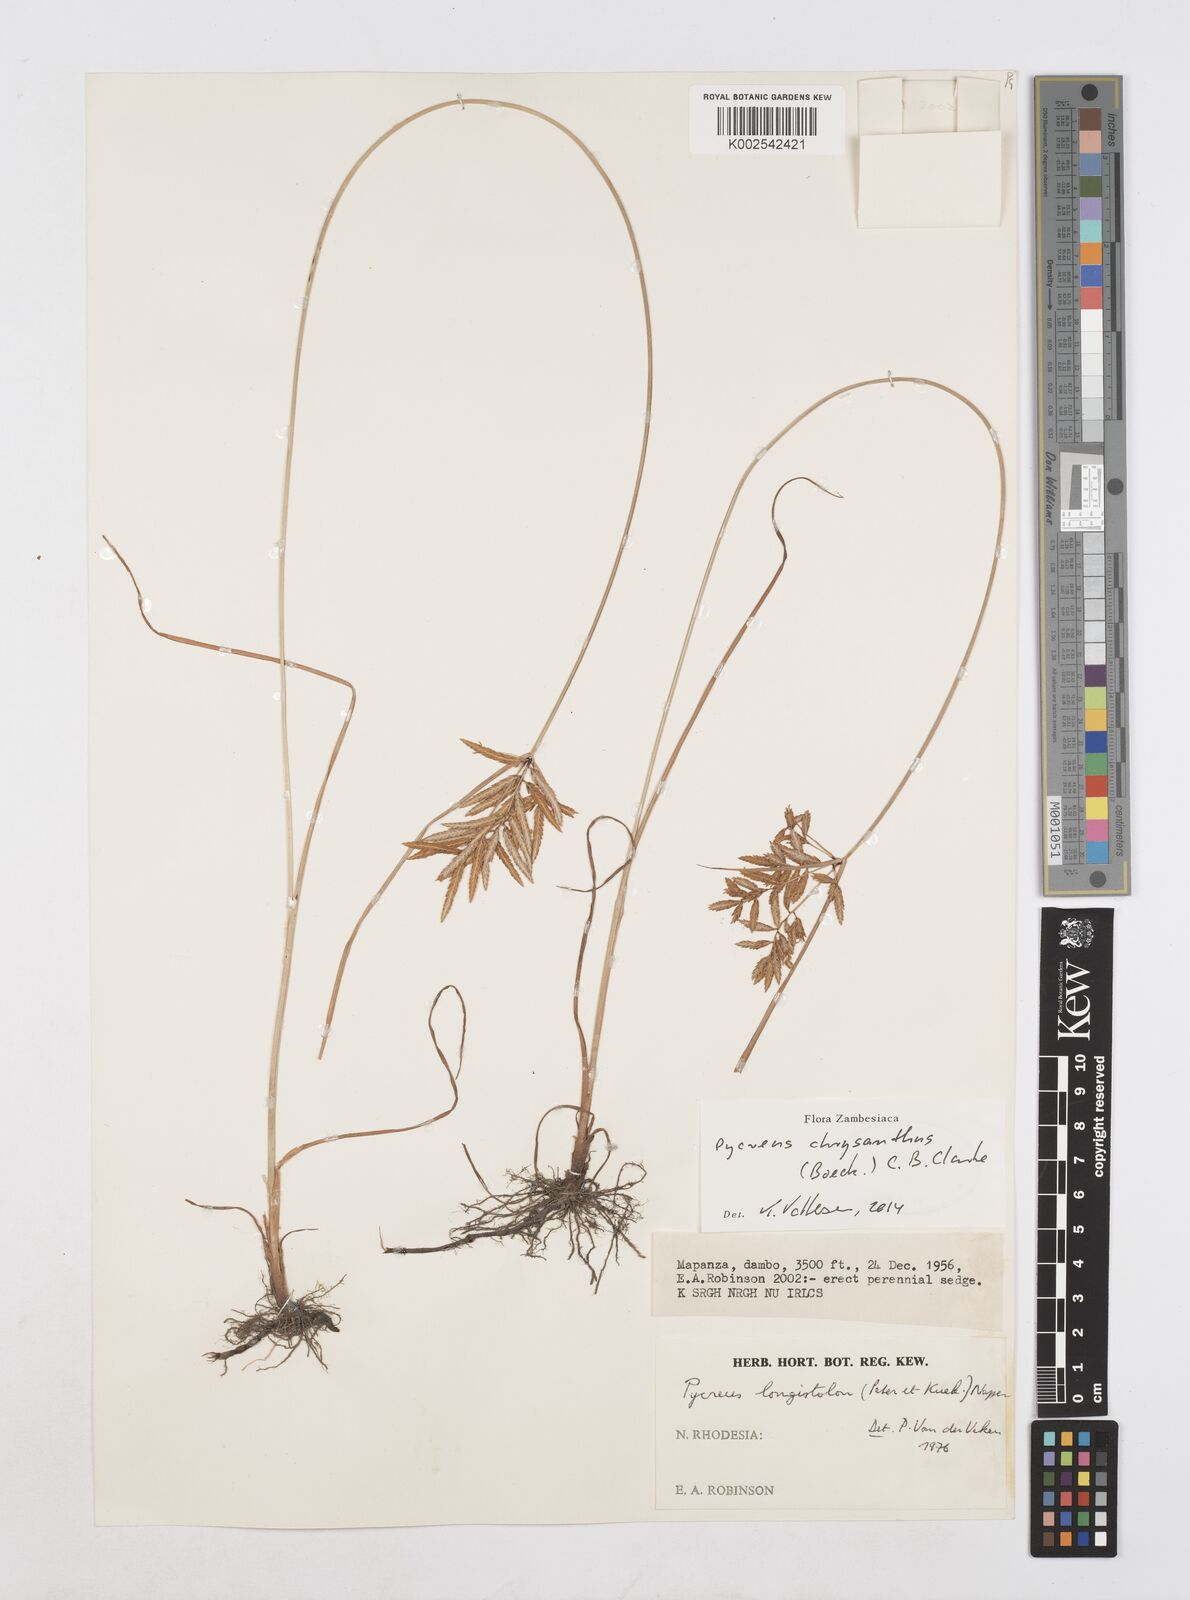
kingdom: Plantae
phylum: Tracheophyta
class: Liliopsida
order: Poales
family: Cyperaceae
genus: Cyperus
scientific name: Cyperus chrysanthus
